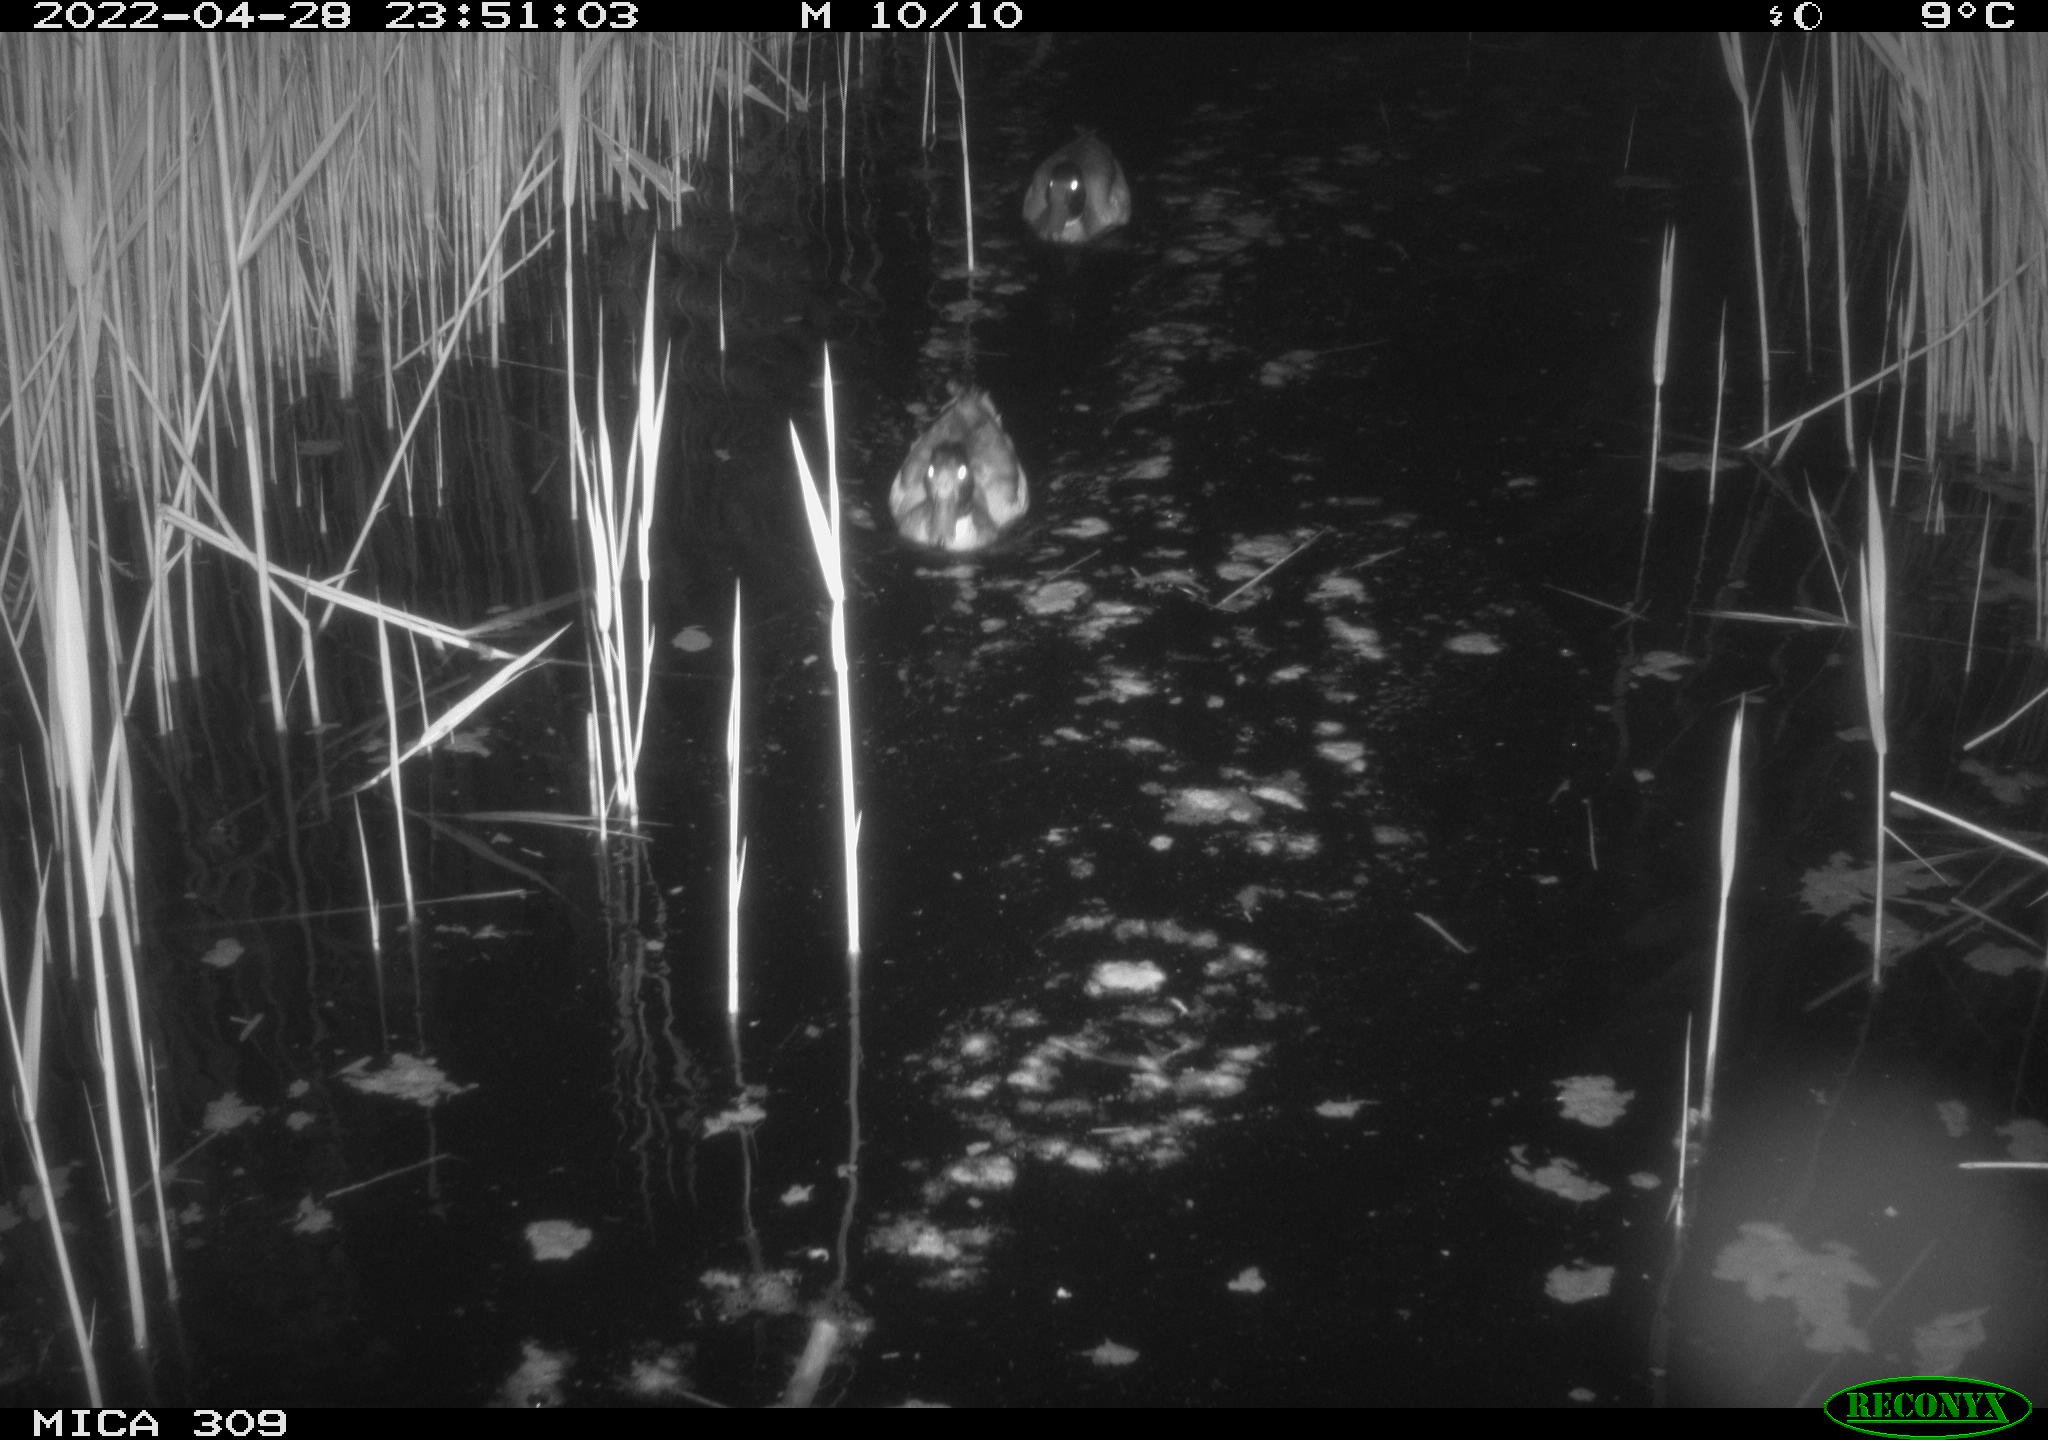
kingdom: Animalia
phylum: Chordata
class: Aves
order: Gruiformes
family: Rallidae
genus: Fulica
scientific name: Fulica atra
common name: Eurasian coot
